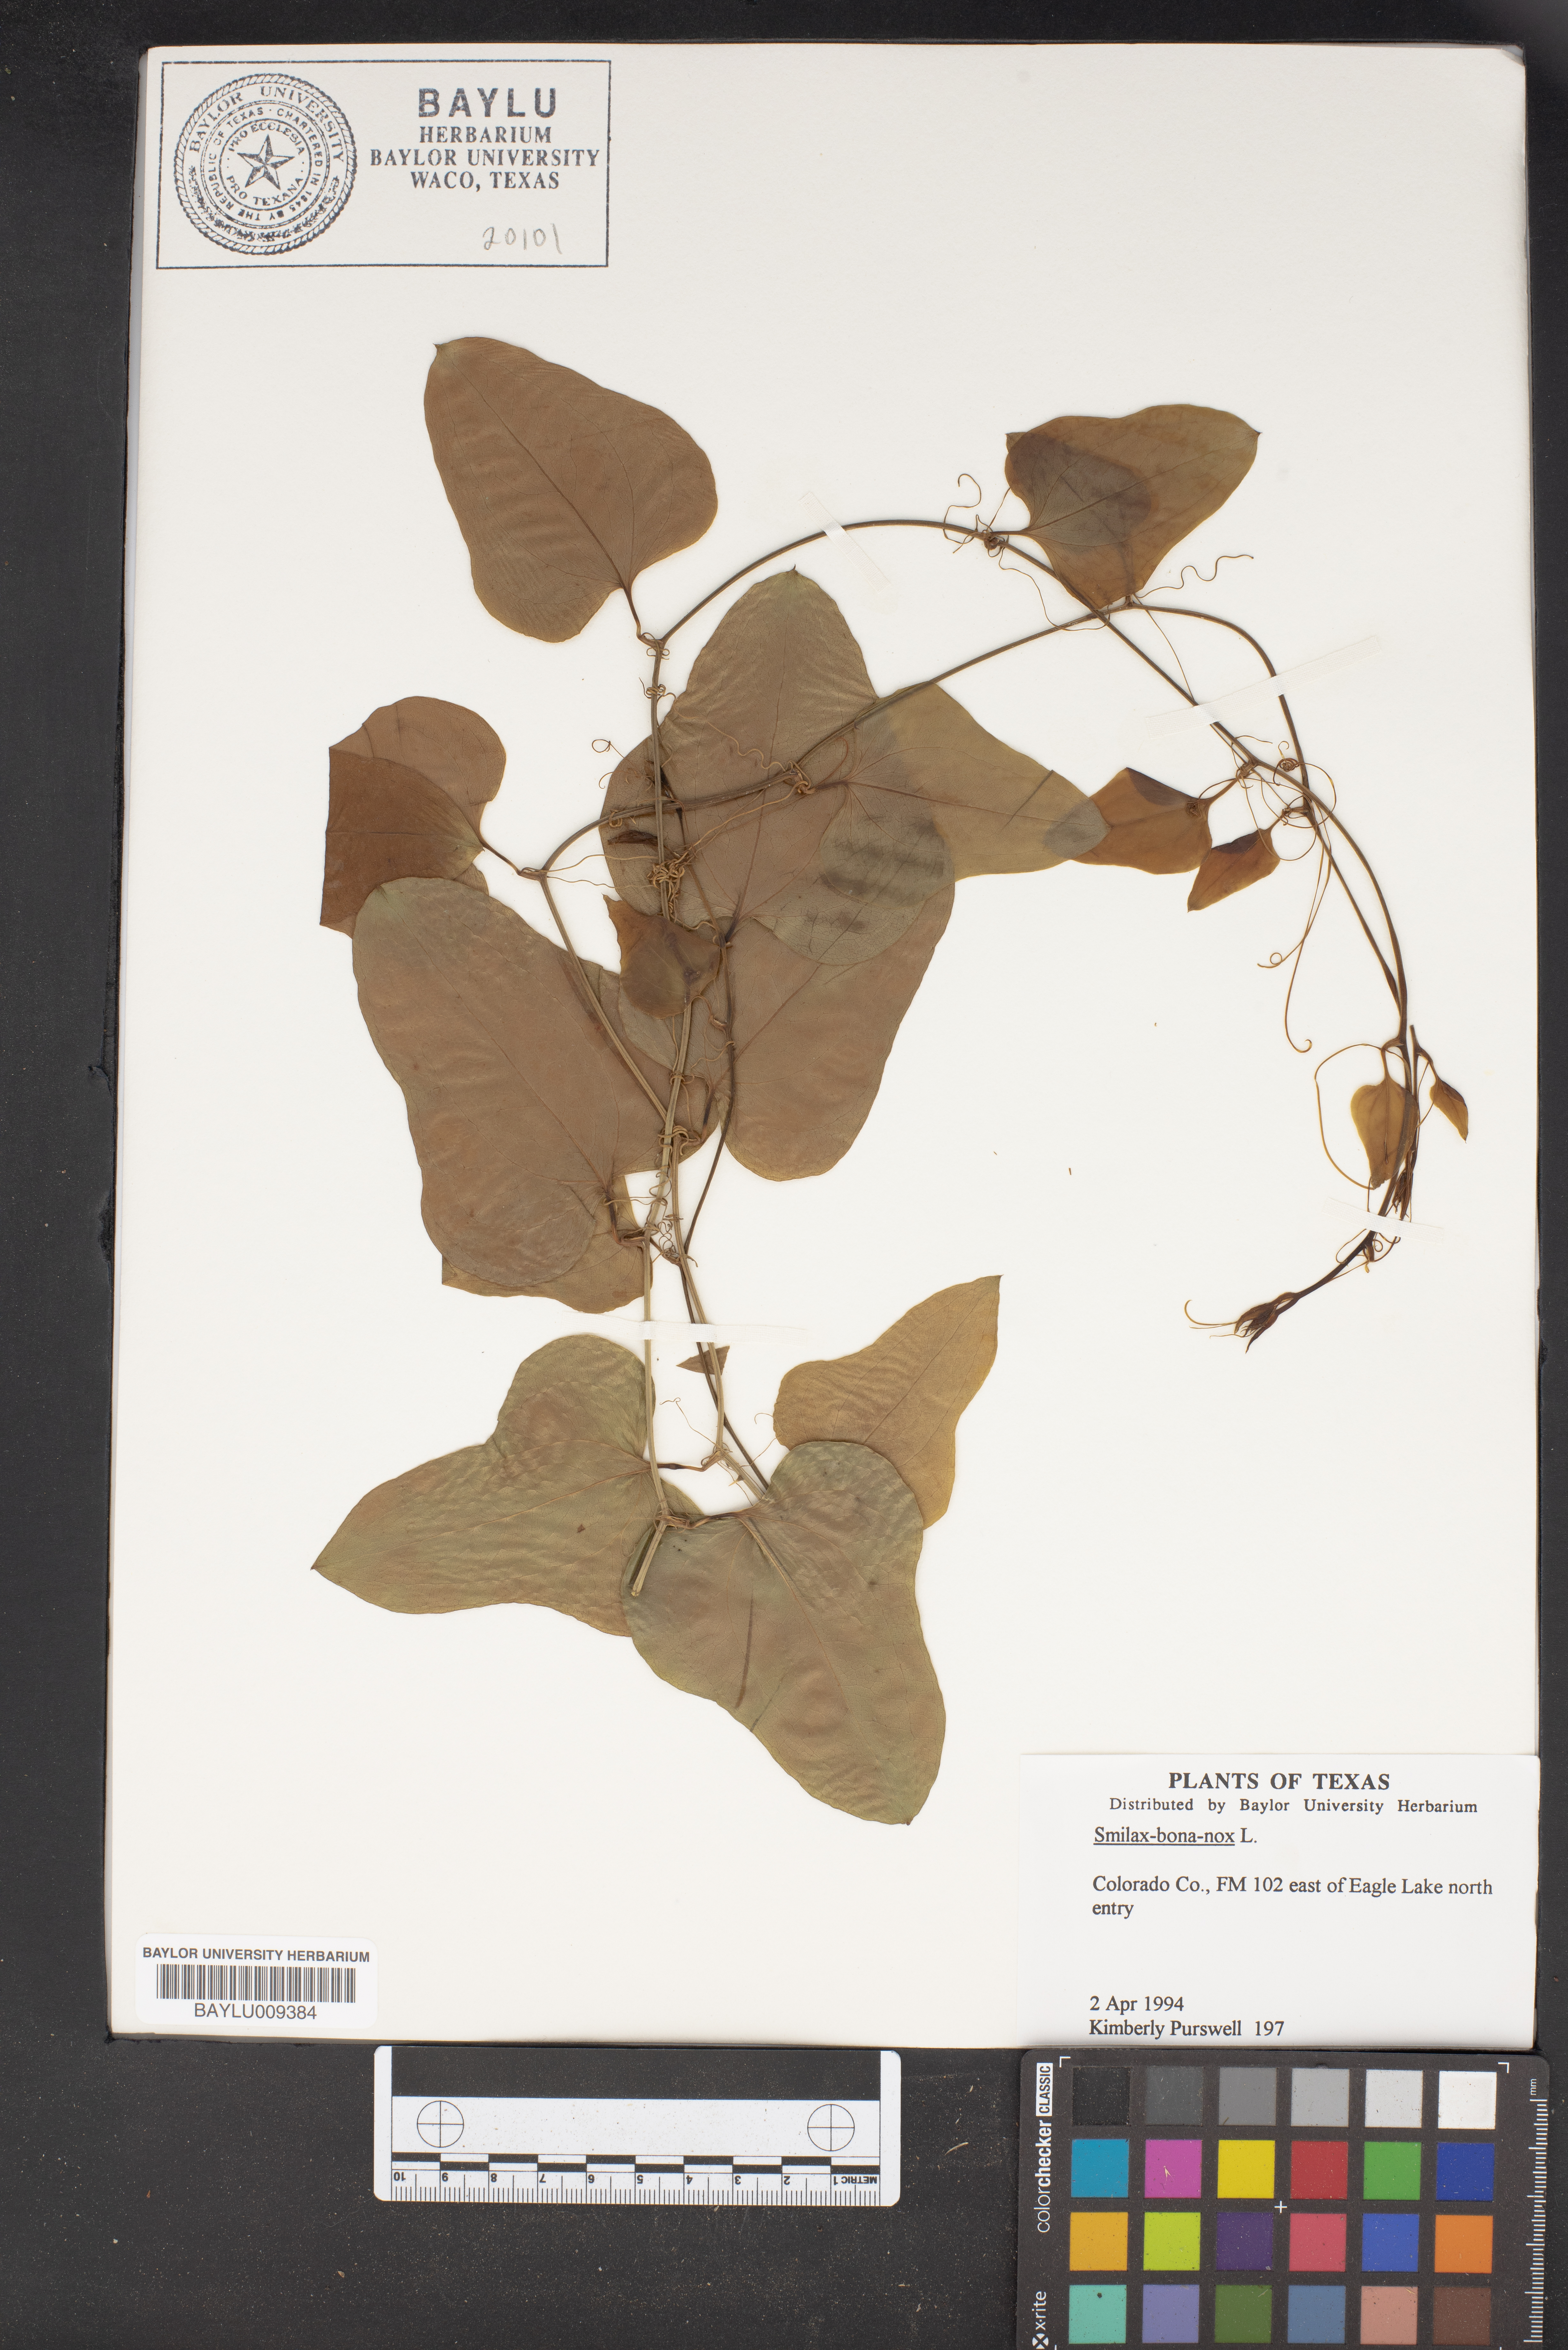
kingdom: Plantae
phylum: Tracheophyta
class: Liliopsida
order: Liliales
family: Smilacaceae
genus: Smilax
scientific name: Smilax bona-nox
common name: Catbrier
